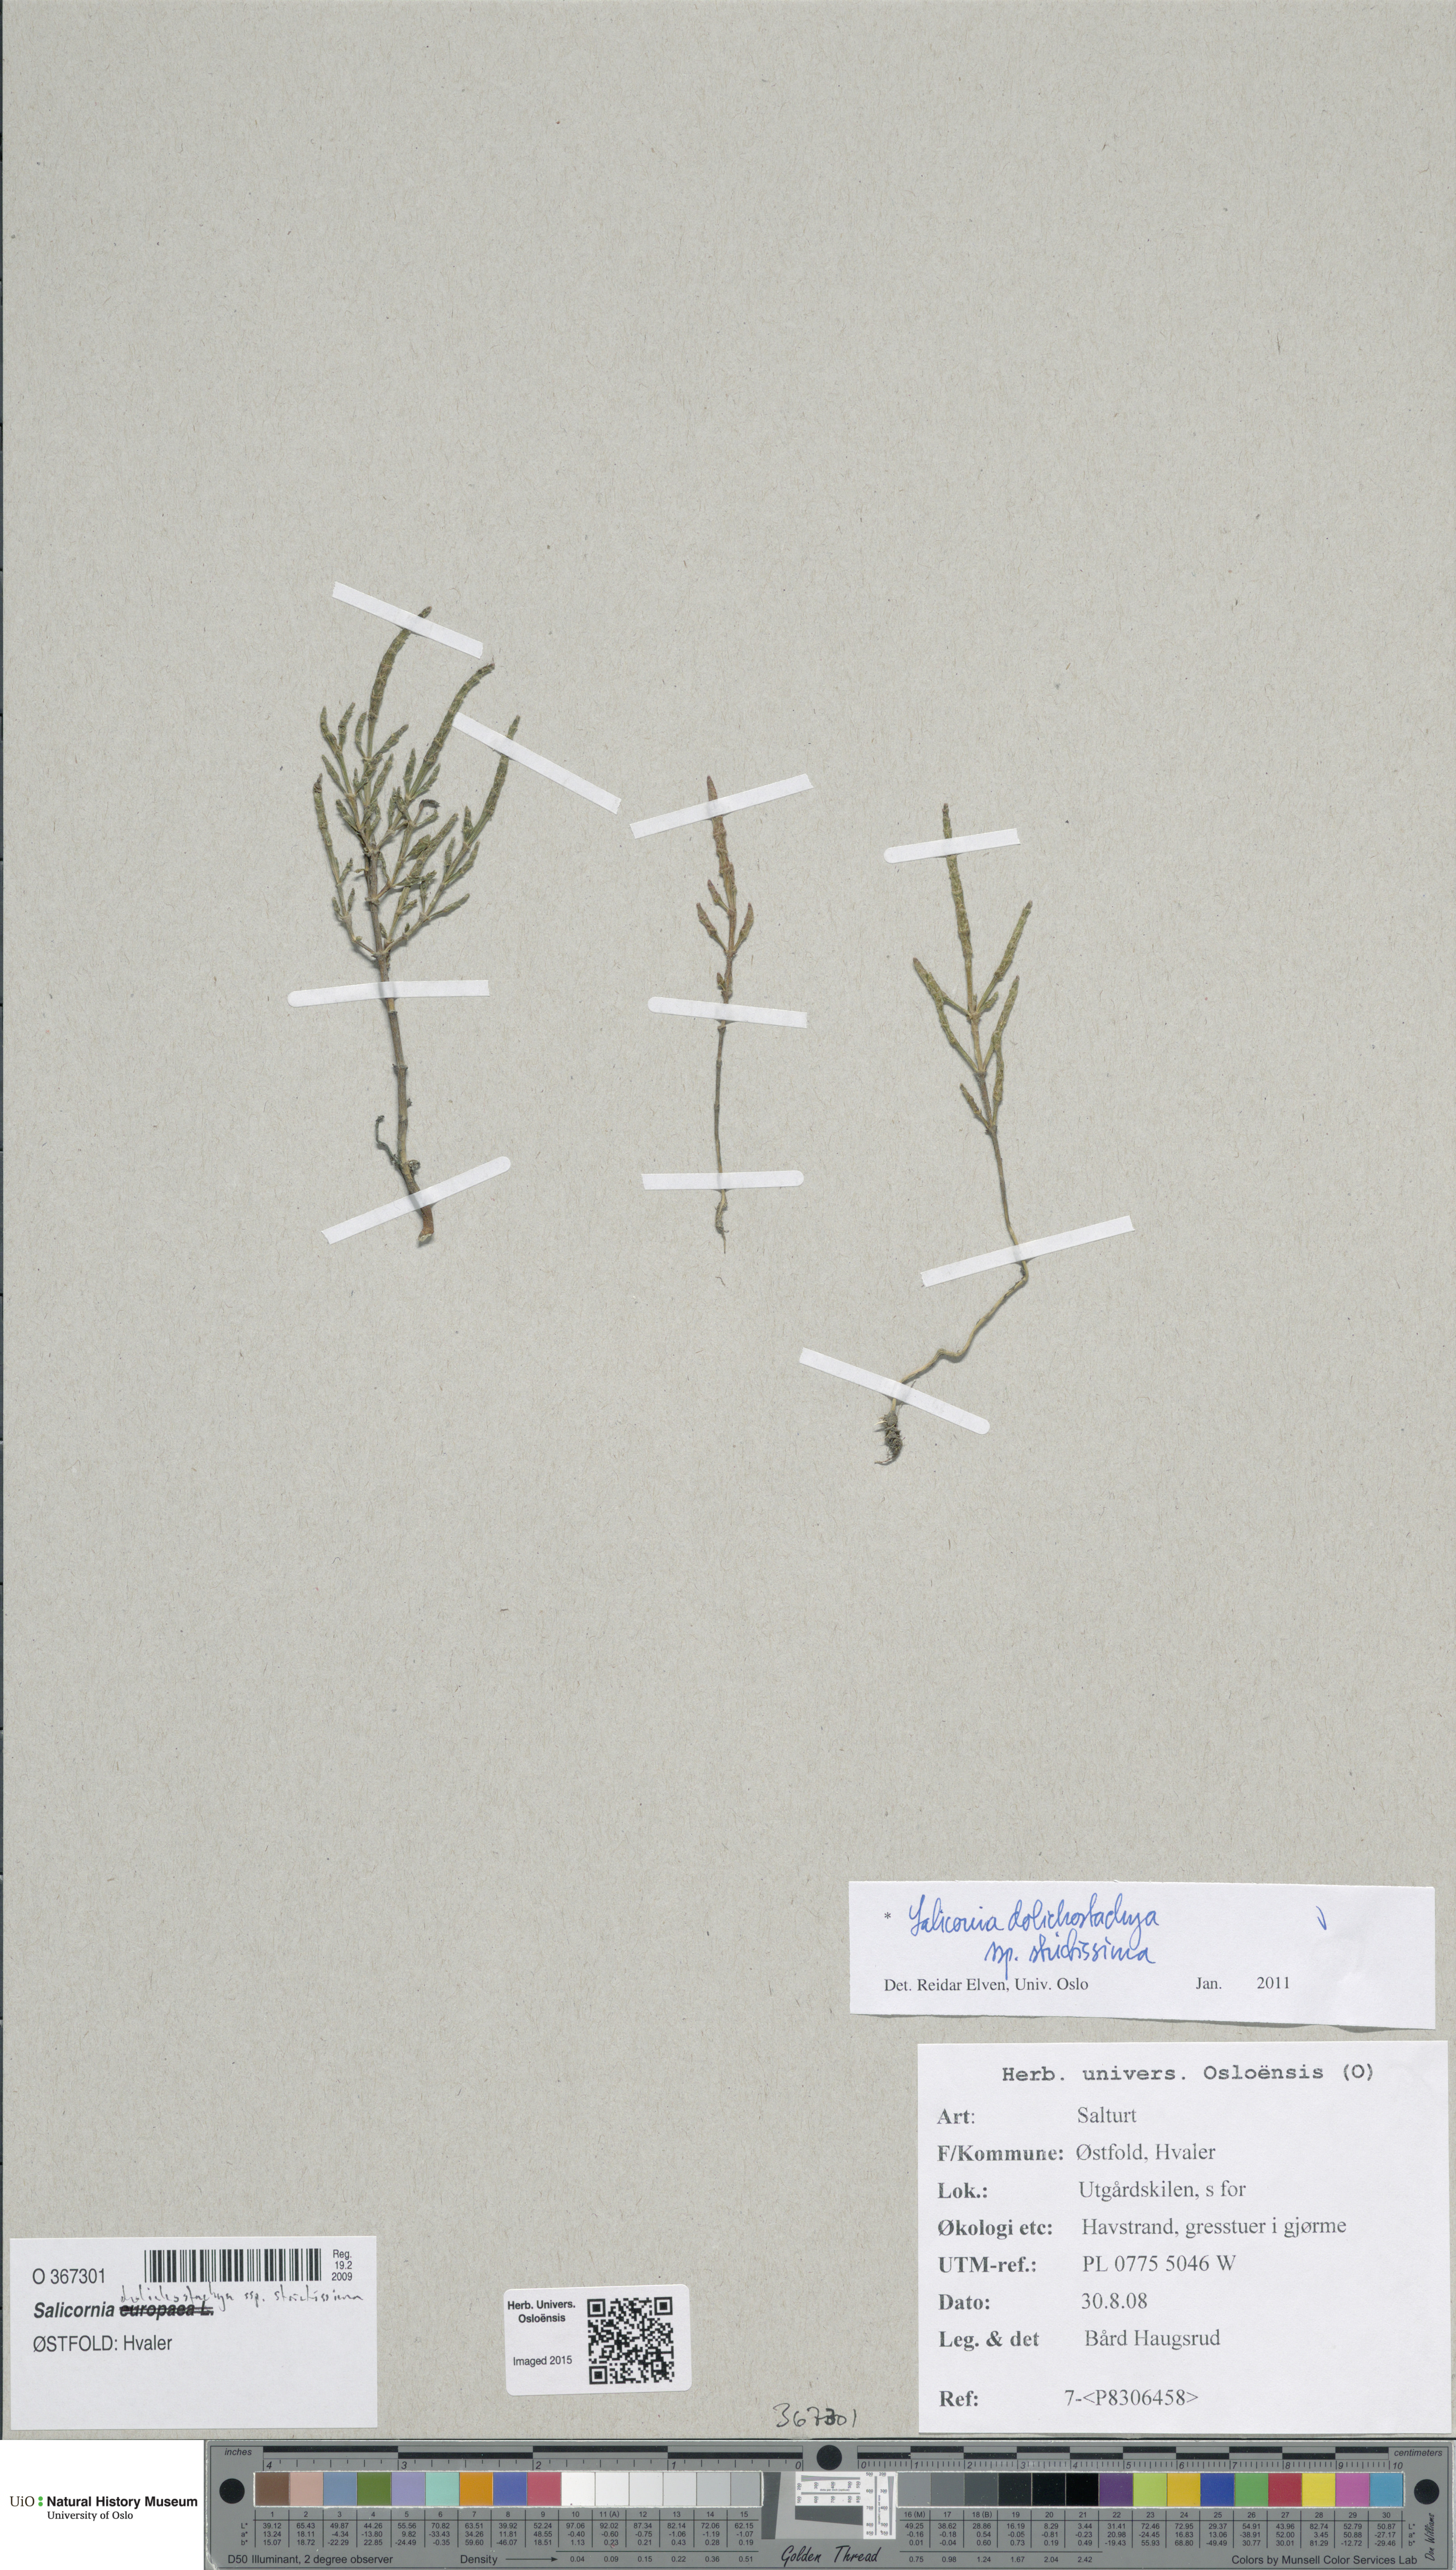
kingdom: Plantae
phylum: Tracheophyta
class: Magnoliopsida
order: Caryophyllales
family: Amaranthaceae
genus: Salicornia
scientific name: Salicornia procumbens
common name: Long-spiked glasswort
